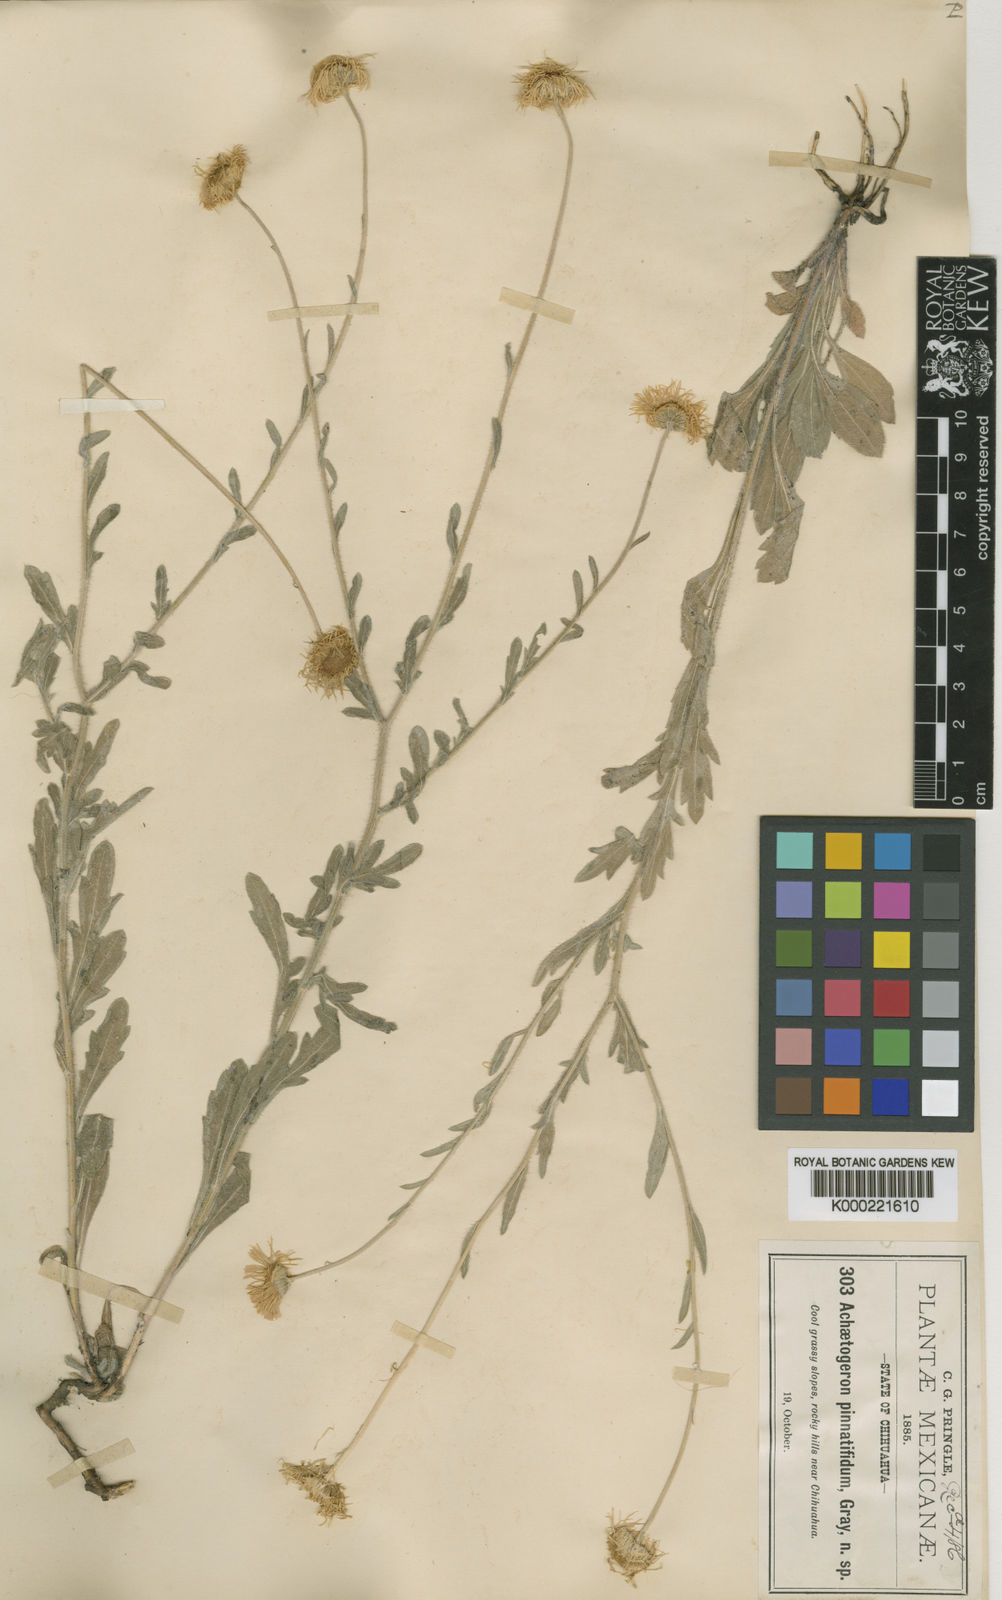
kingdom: Plantae
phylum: Tracheophyta
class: Magnoliopsida
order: Asterales
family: Asteraceae
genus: Erigeron
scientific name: Erigeron chihuahuanus
